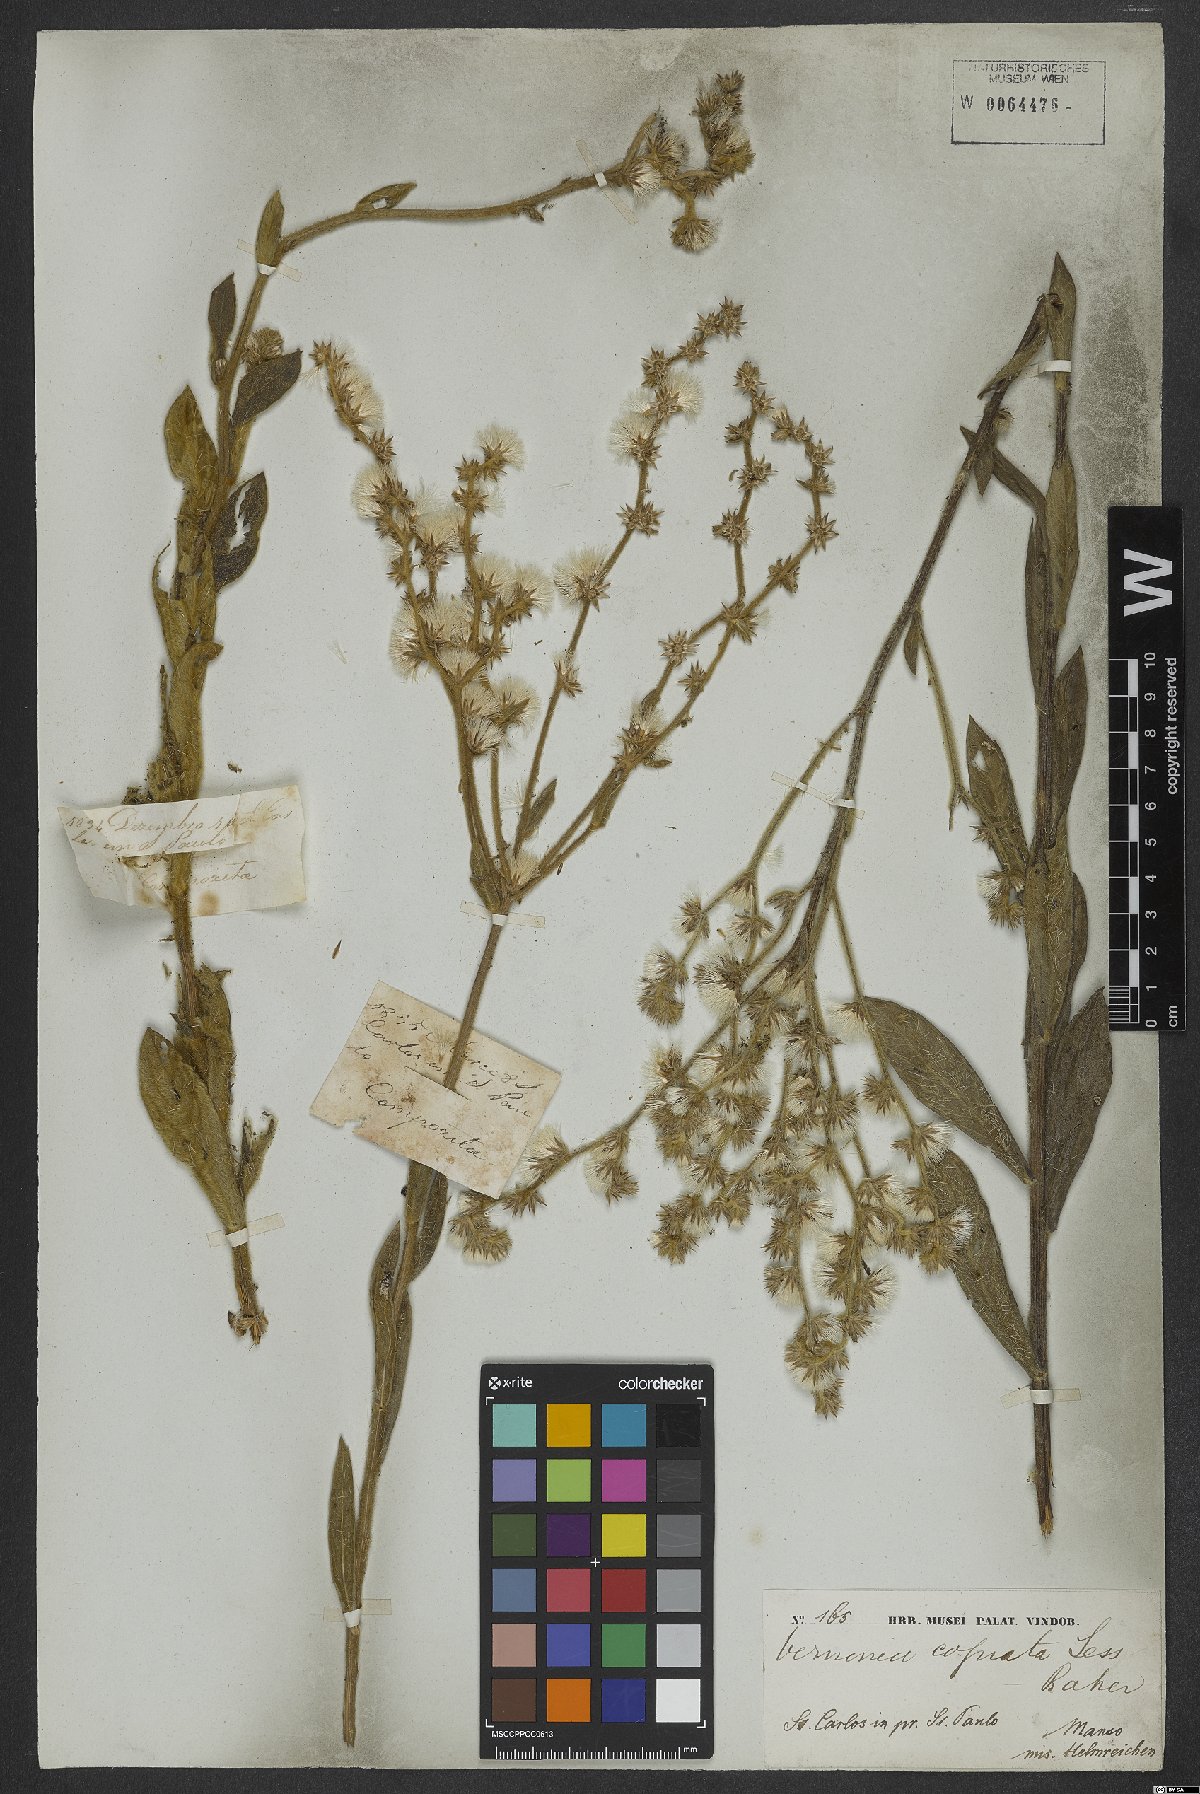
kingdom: Plantae
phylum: Tracheophyta
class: Magnoliopsida
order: Asterales
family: Asteraceae
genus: Lessingianthus
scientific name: Lessingianthus coriaceus
